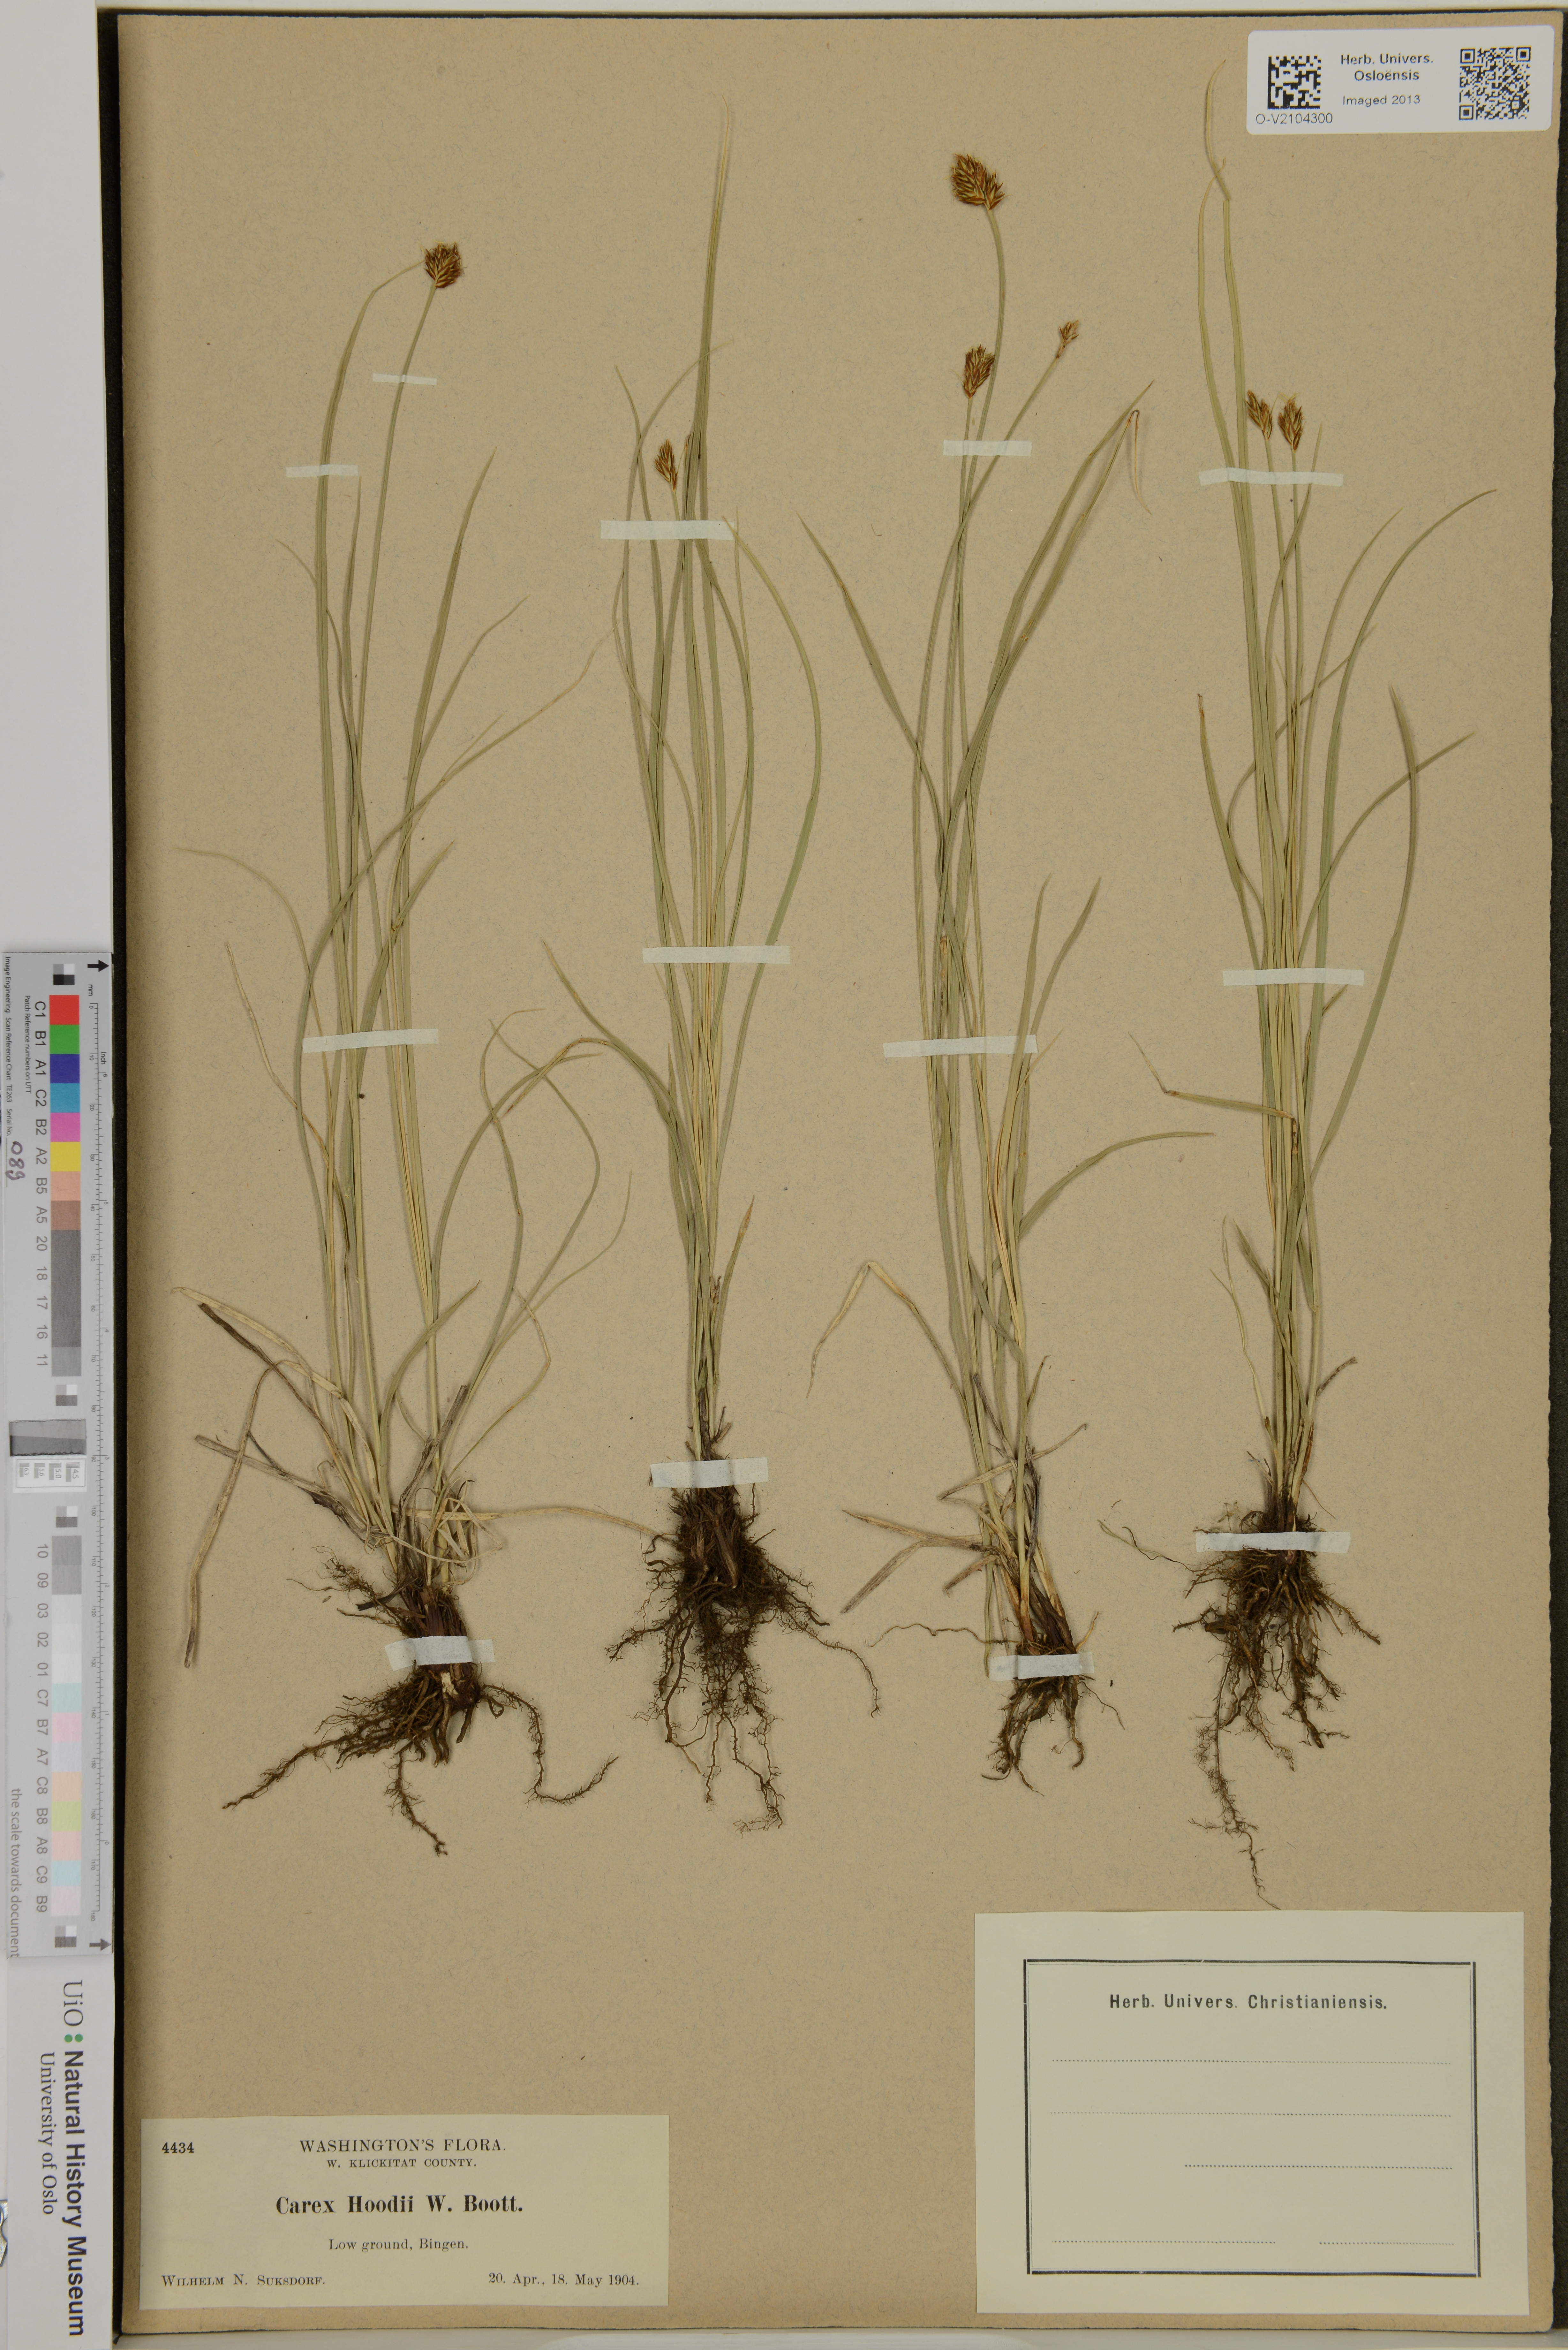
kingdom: Plantae
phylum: Tracheophyta
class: Liliopsida
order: Poales
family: Cyperaceae
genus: Carex
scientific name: Carex hoodii
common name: Hood's sedge
